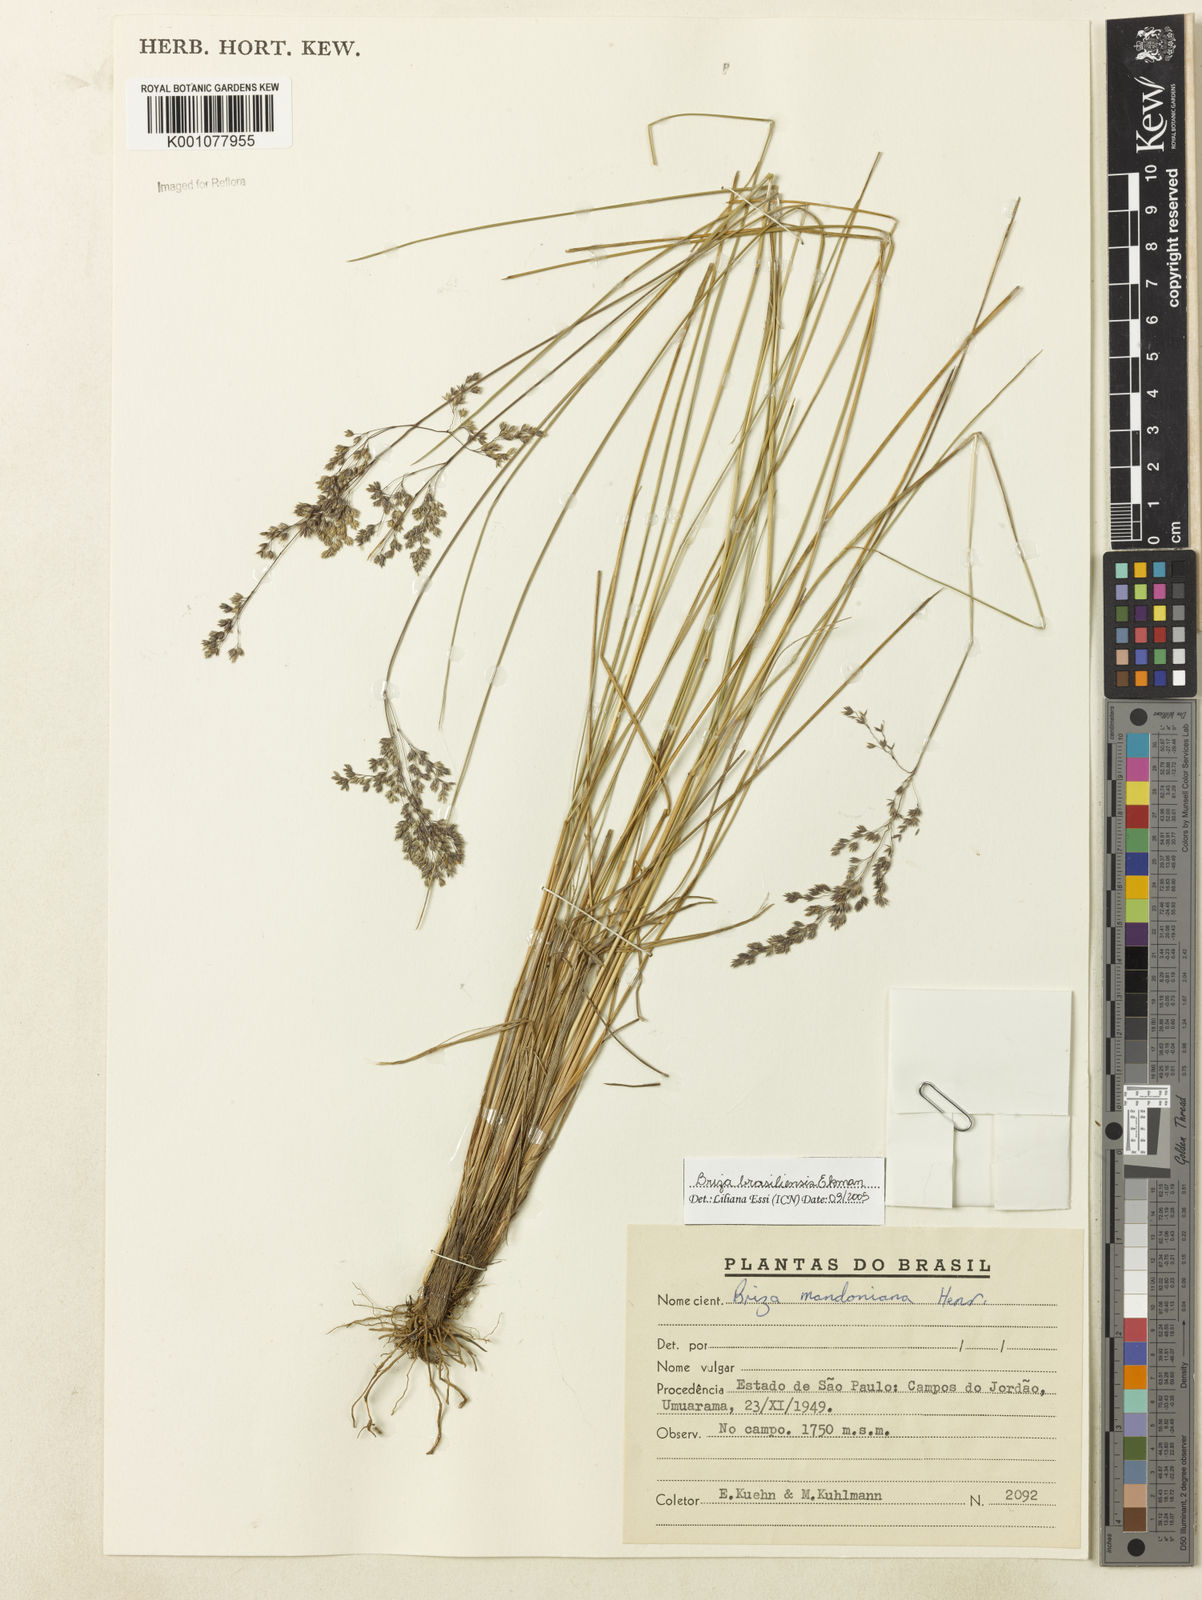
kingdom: Plantae
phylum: Tracheophyta
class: Liliopsida
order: Poales
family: Poaceae
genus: Poidium
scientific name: Poidium brasiliense
